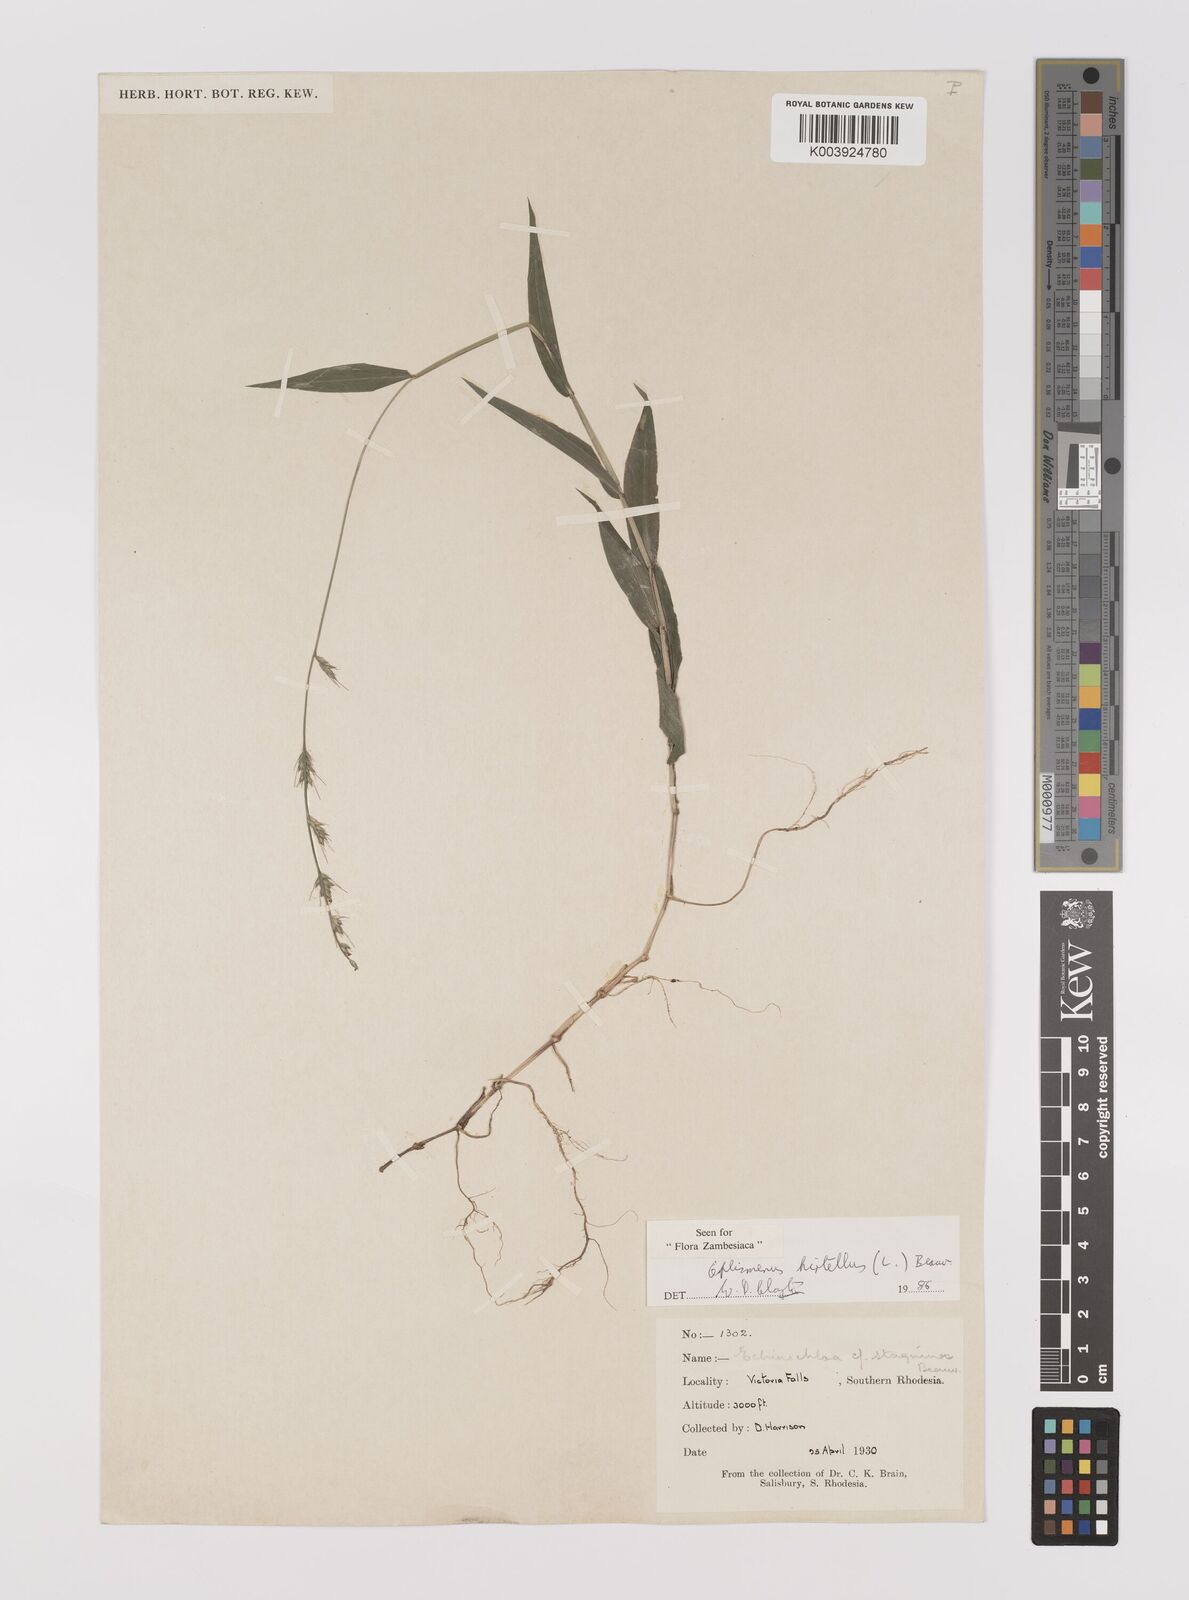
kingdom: Plantae
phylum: Tracheophyta
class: Liliopsida
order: Poales
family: Poaceae
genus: Oplismenus
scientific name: Oplismenus hirtellus
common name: Basketgrass
